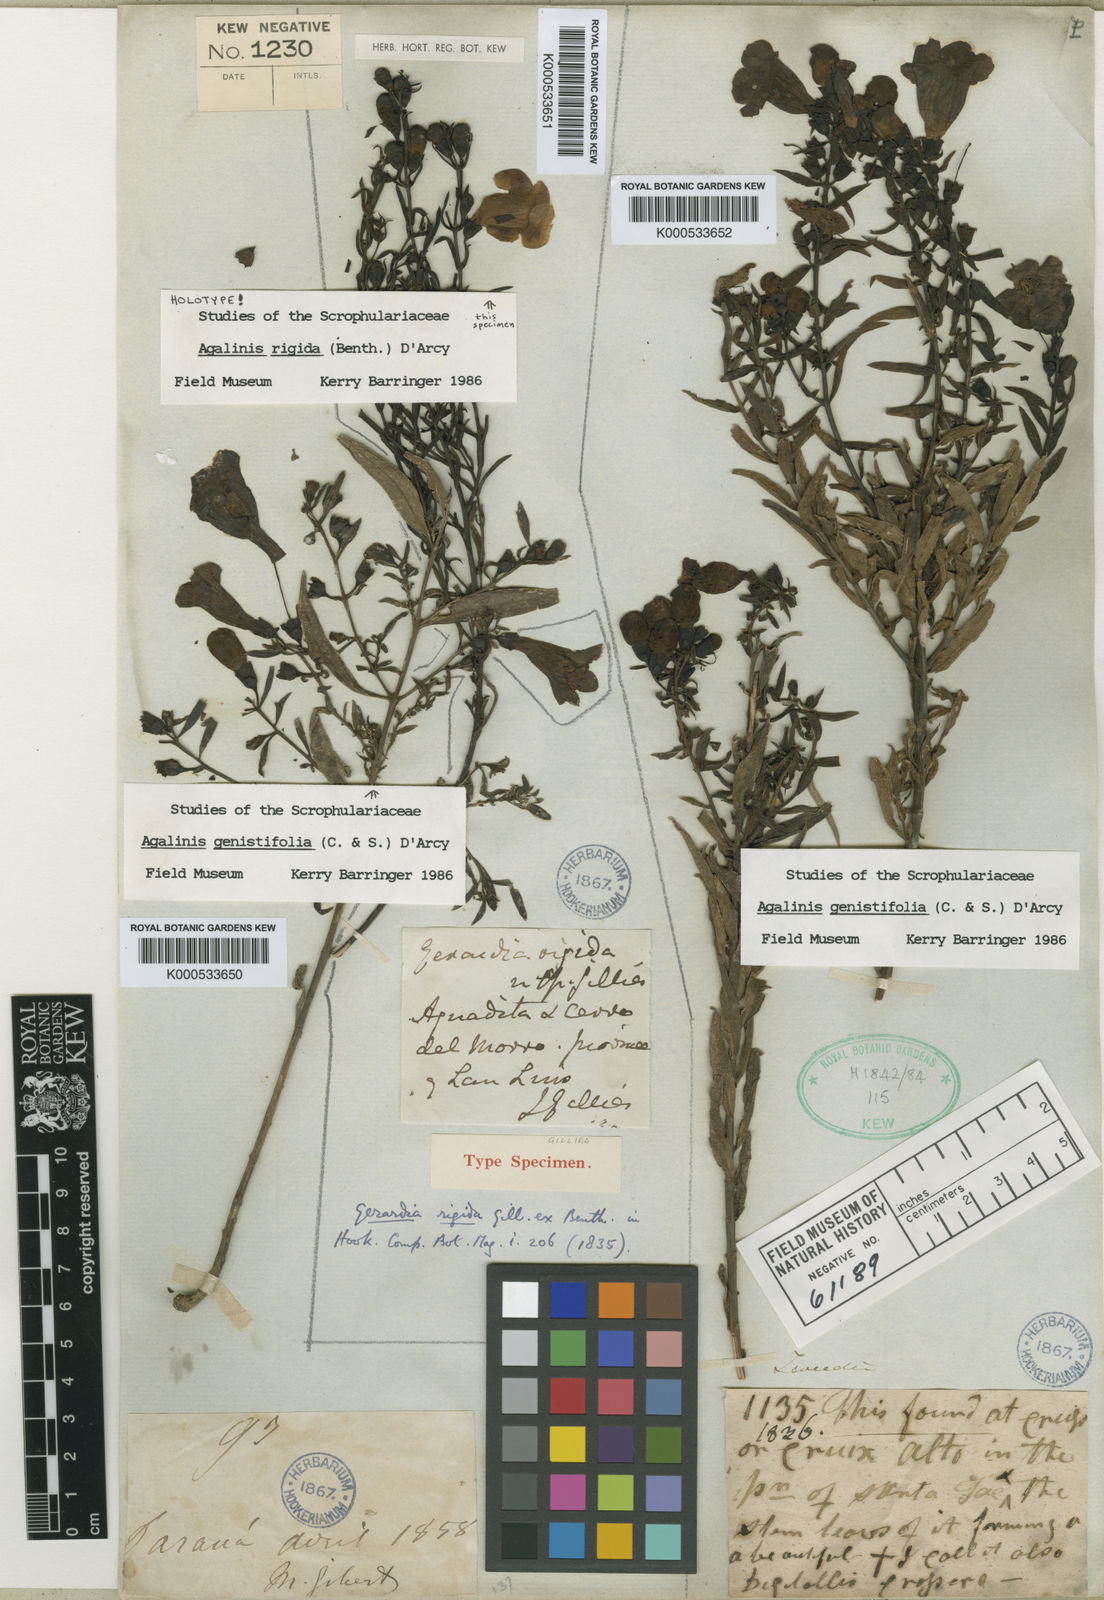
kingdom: Plantae
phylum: Tracheophyta
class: Magnoliopsida
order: Lamiales
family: Orobanchaceae
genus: Agalinis
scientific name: Agalinis rigida
